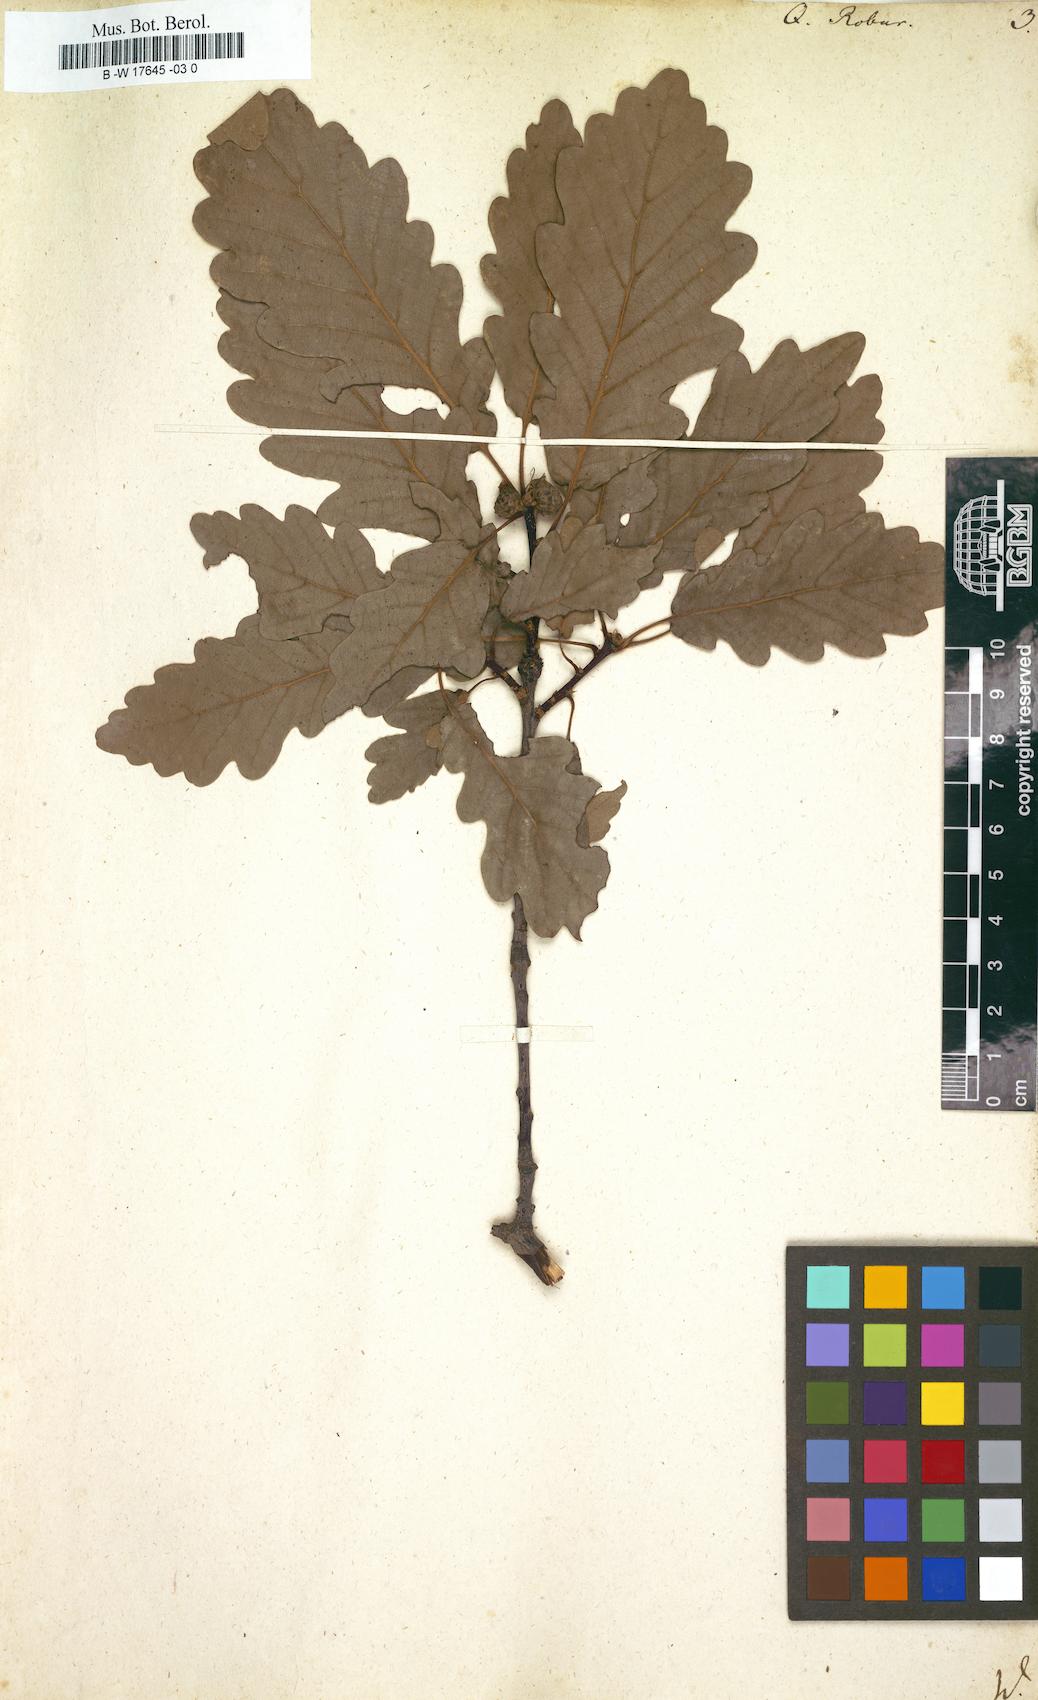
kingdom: Plantae
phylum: Tracheophyta
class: Magnoliopsida
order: Fagales
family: Fagaceae
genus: Quercus
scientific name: Quercus robur
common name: Pedunculate oak
